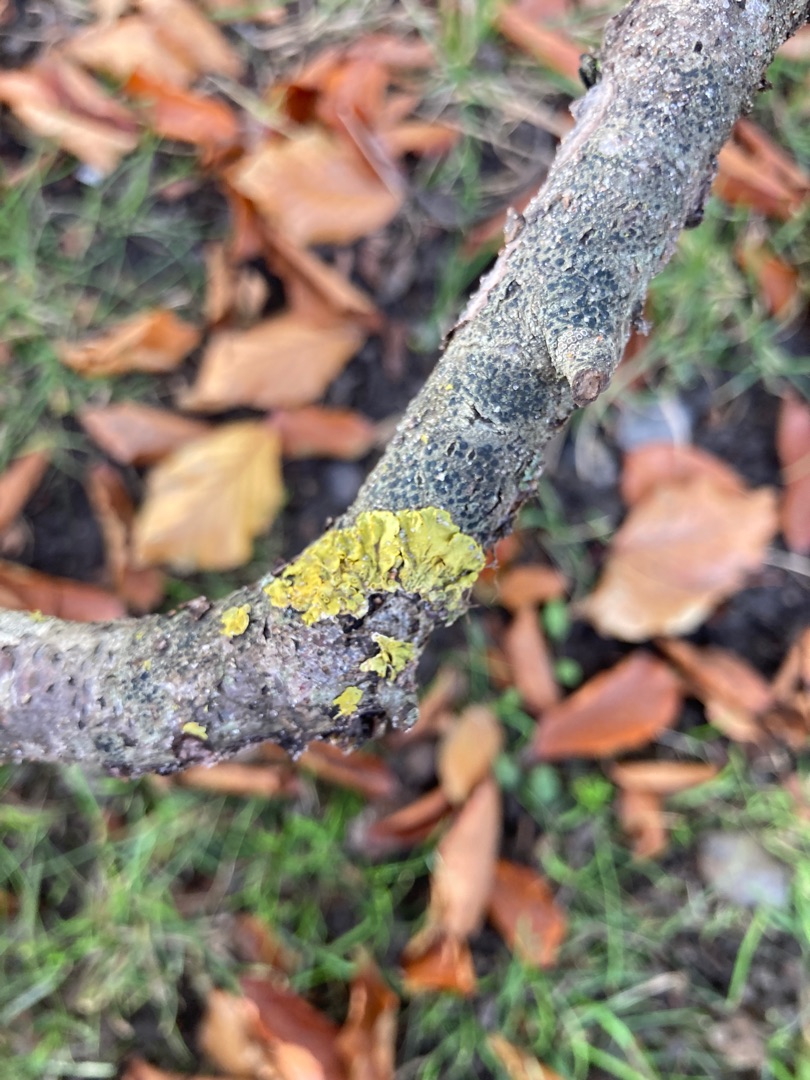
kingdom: Fungi
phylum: Ascomycota
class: Lecanoromycetes
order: Teloschistales
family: Teloschistaceae
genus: Xanthoria
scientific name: Xanthoria parietina
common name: Almindelig væggelav
